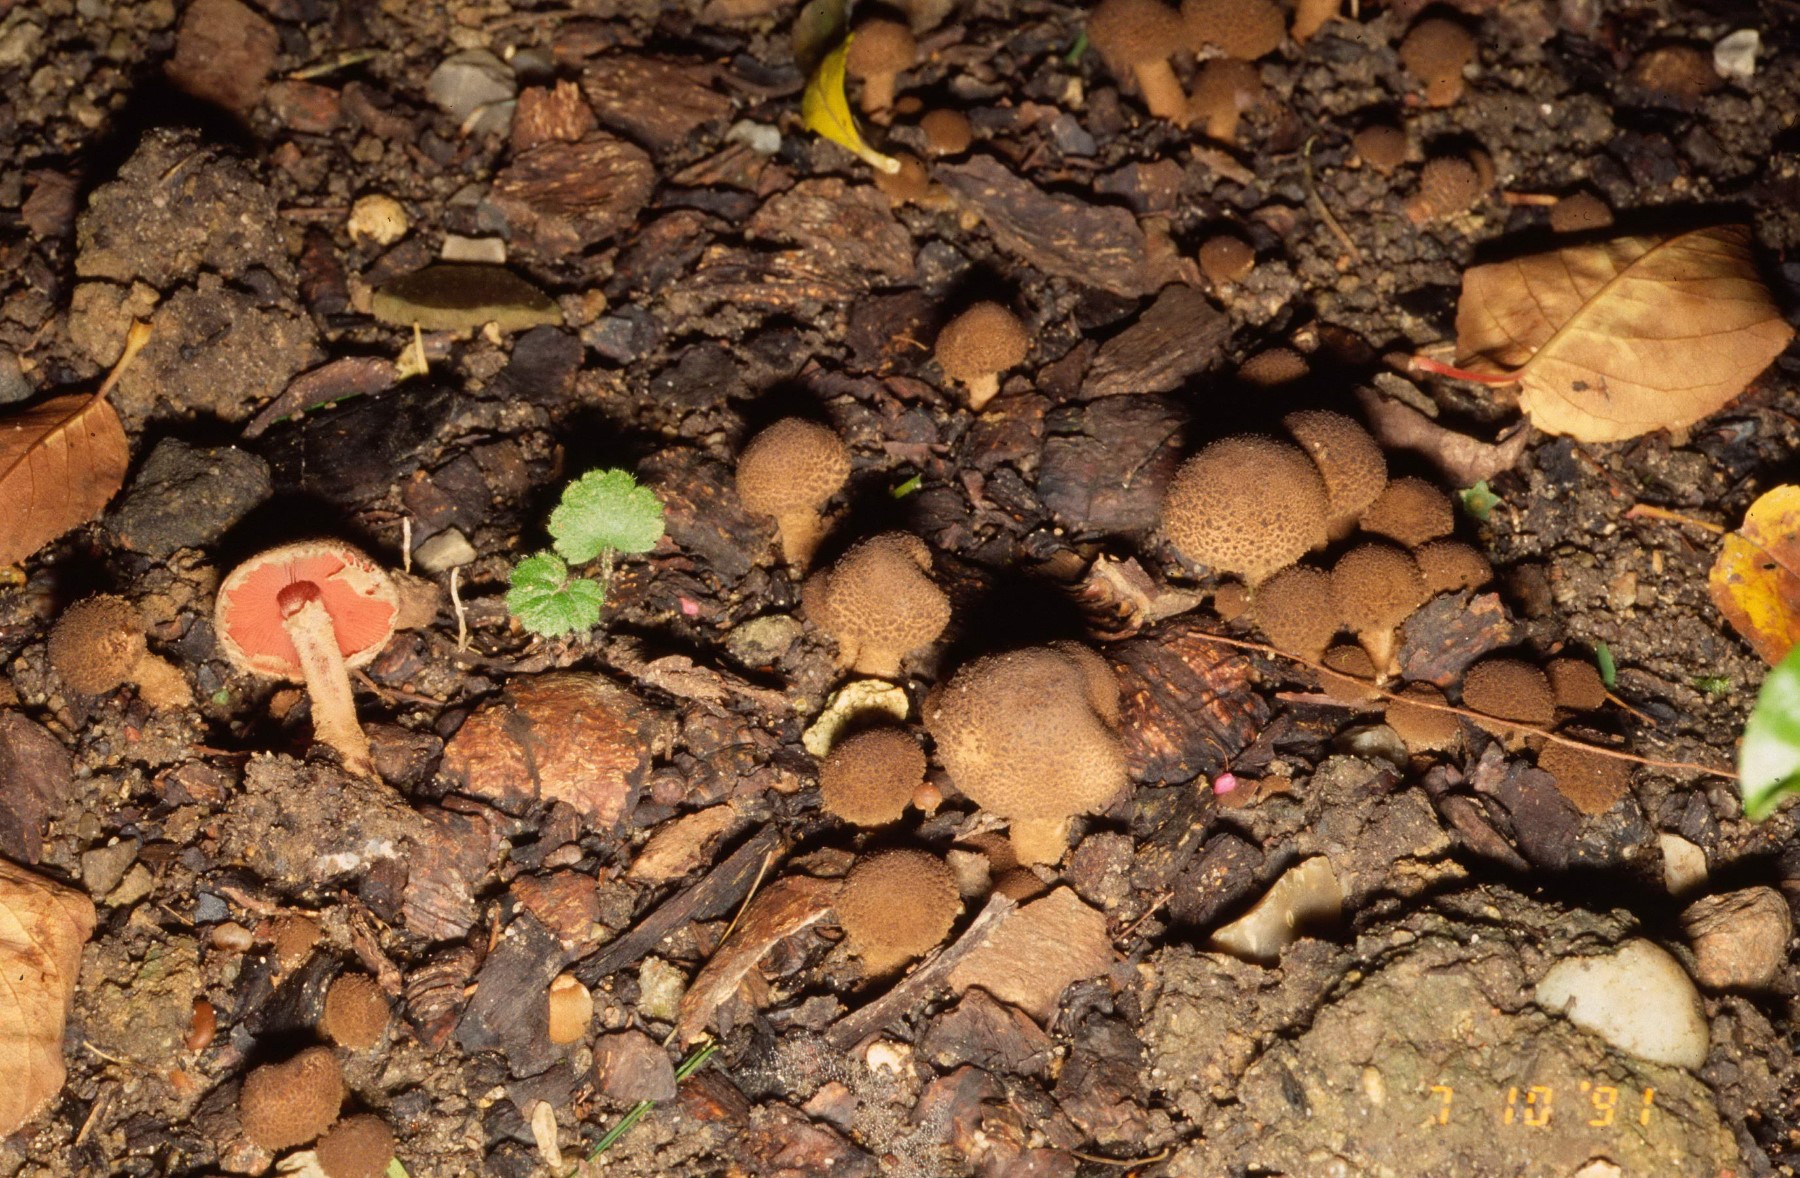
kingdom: Fungi
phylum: Basidiomycota
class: Agaricomycetes
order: Agaricales
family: Agaricaceae
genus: Melanophyllum
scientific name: Melanophyllum haematospermum
